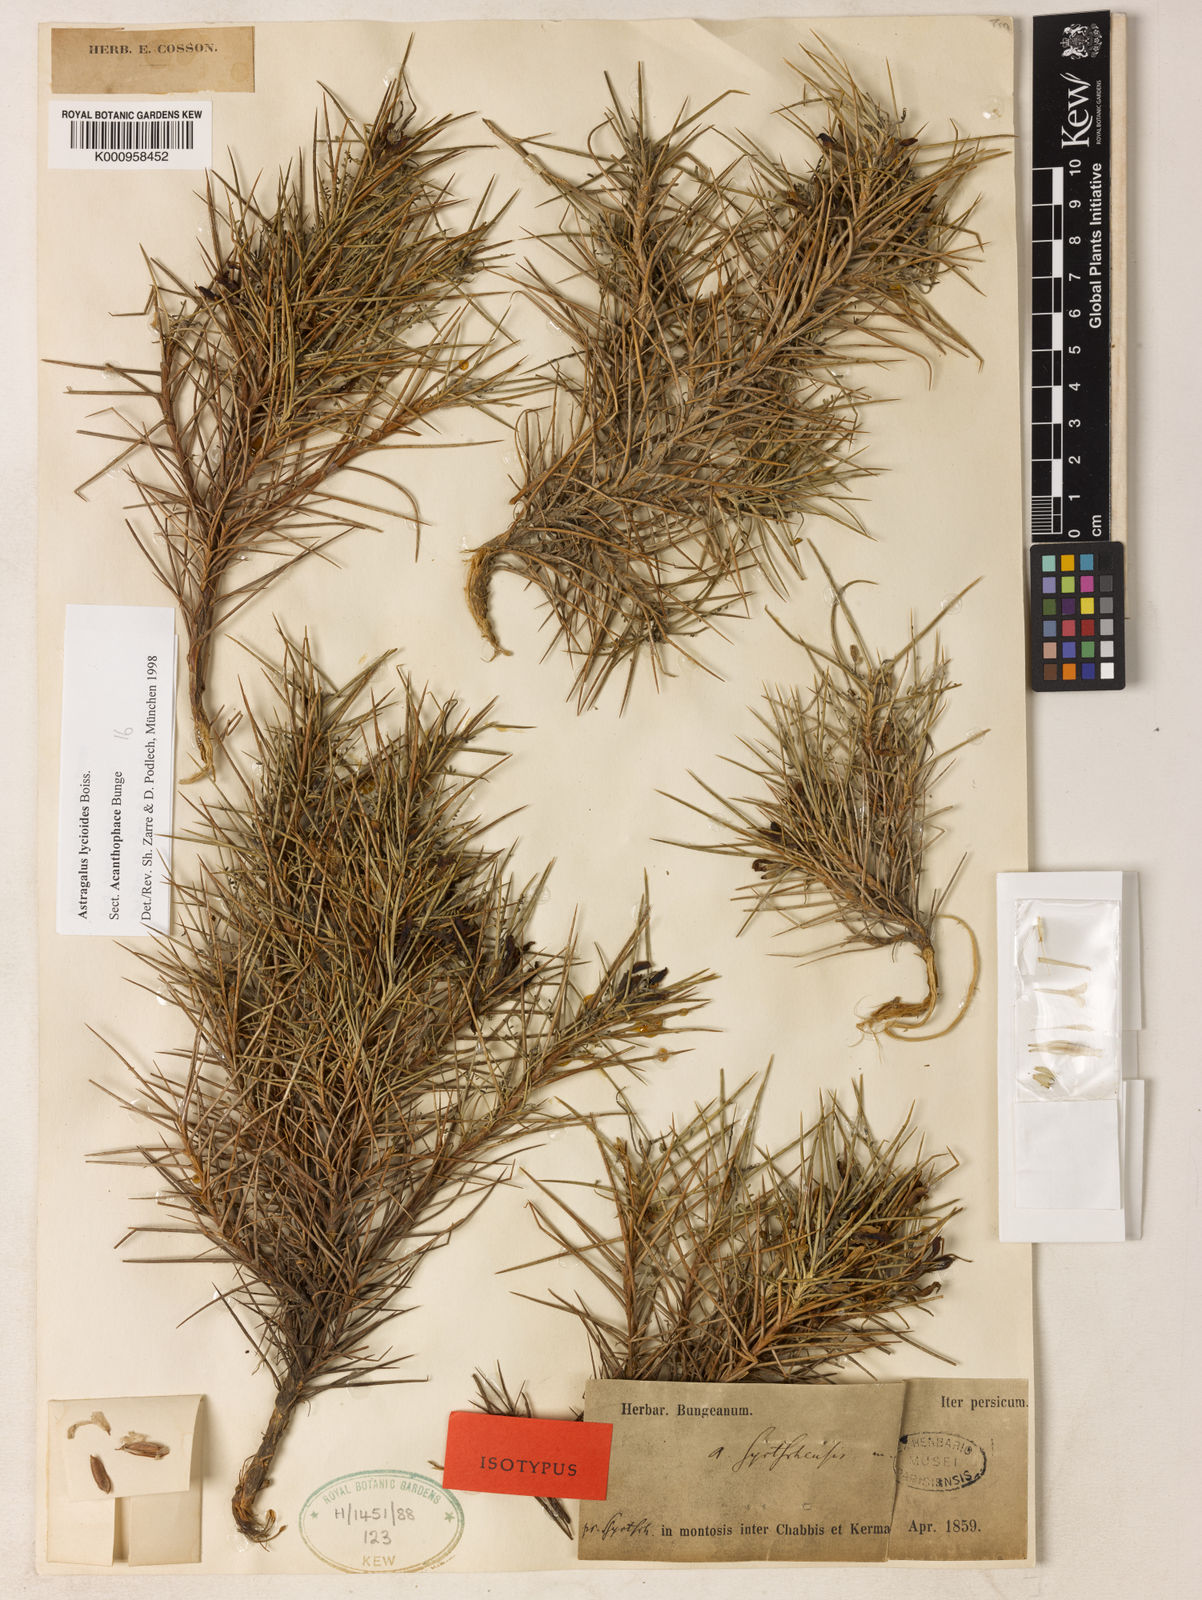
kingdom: Plantae
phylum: Tracheophyta
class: Magnoliopsida
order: Fabales
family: Fabaceae
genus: Astragalus
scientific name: Astragalus
